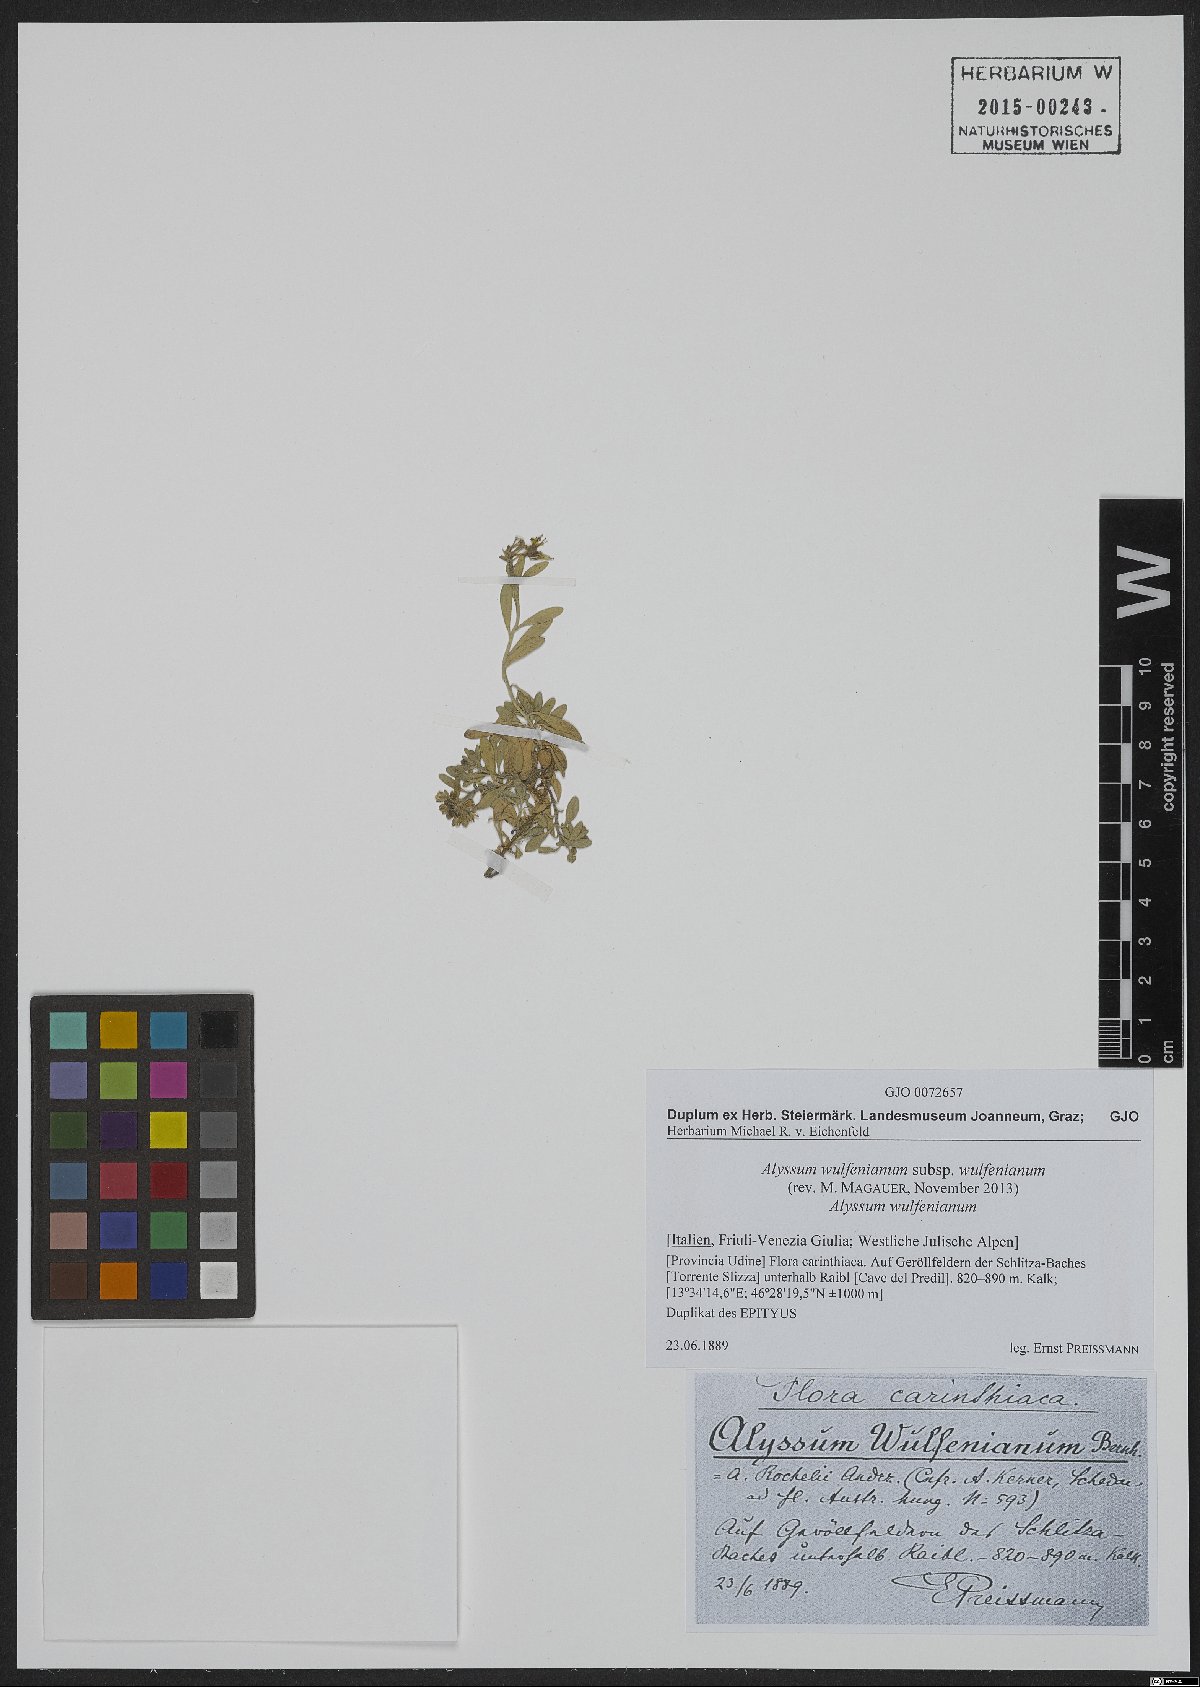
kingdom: Plantae
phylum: Tracheophyta
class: Magnoliopsida
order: Brassicales
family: Brassicaceae
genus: Alyssum
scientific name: Alyssum wulfenianum
